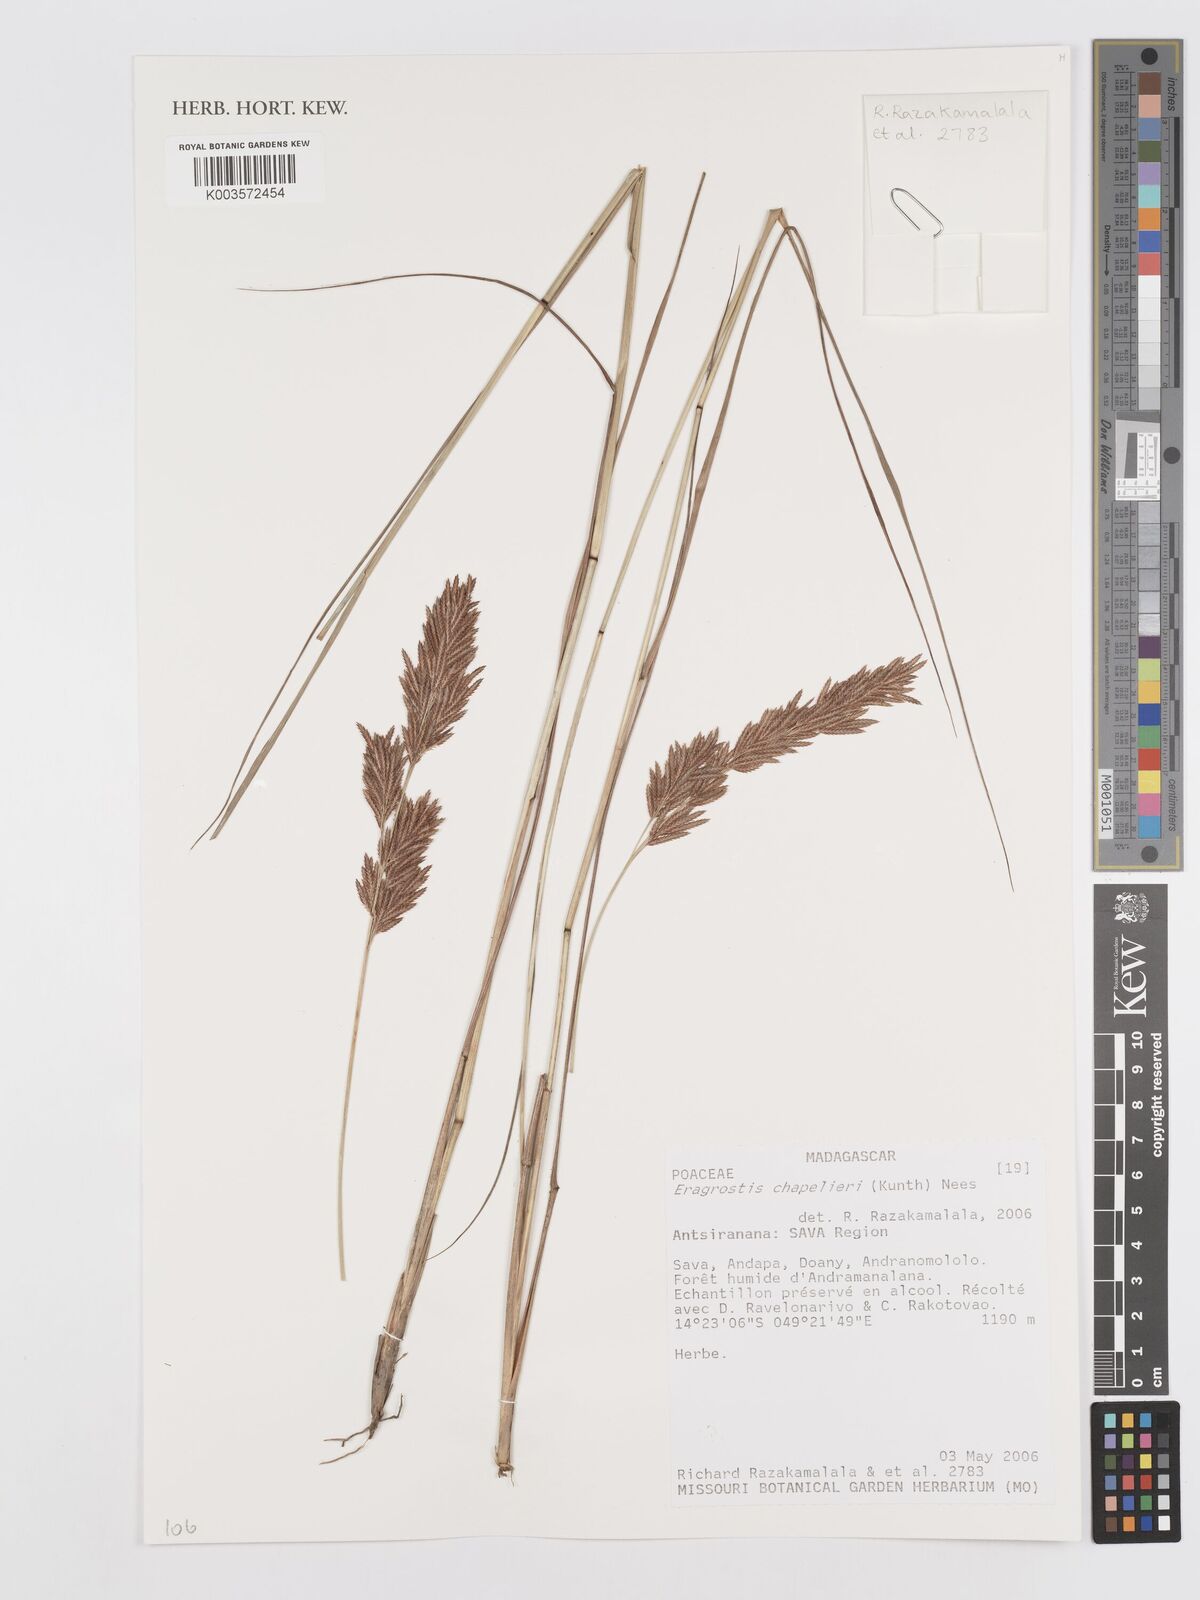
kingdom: Plantae
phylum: Tracheophyta
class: Liliopsida
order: Poales
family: Poaceae
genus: Eragrostis
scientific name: Eragrostis chapelieri
